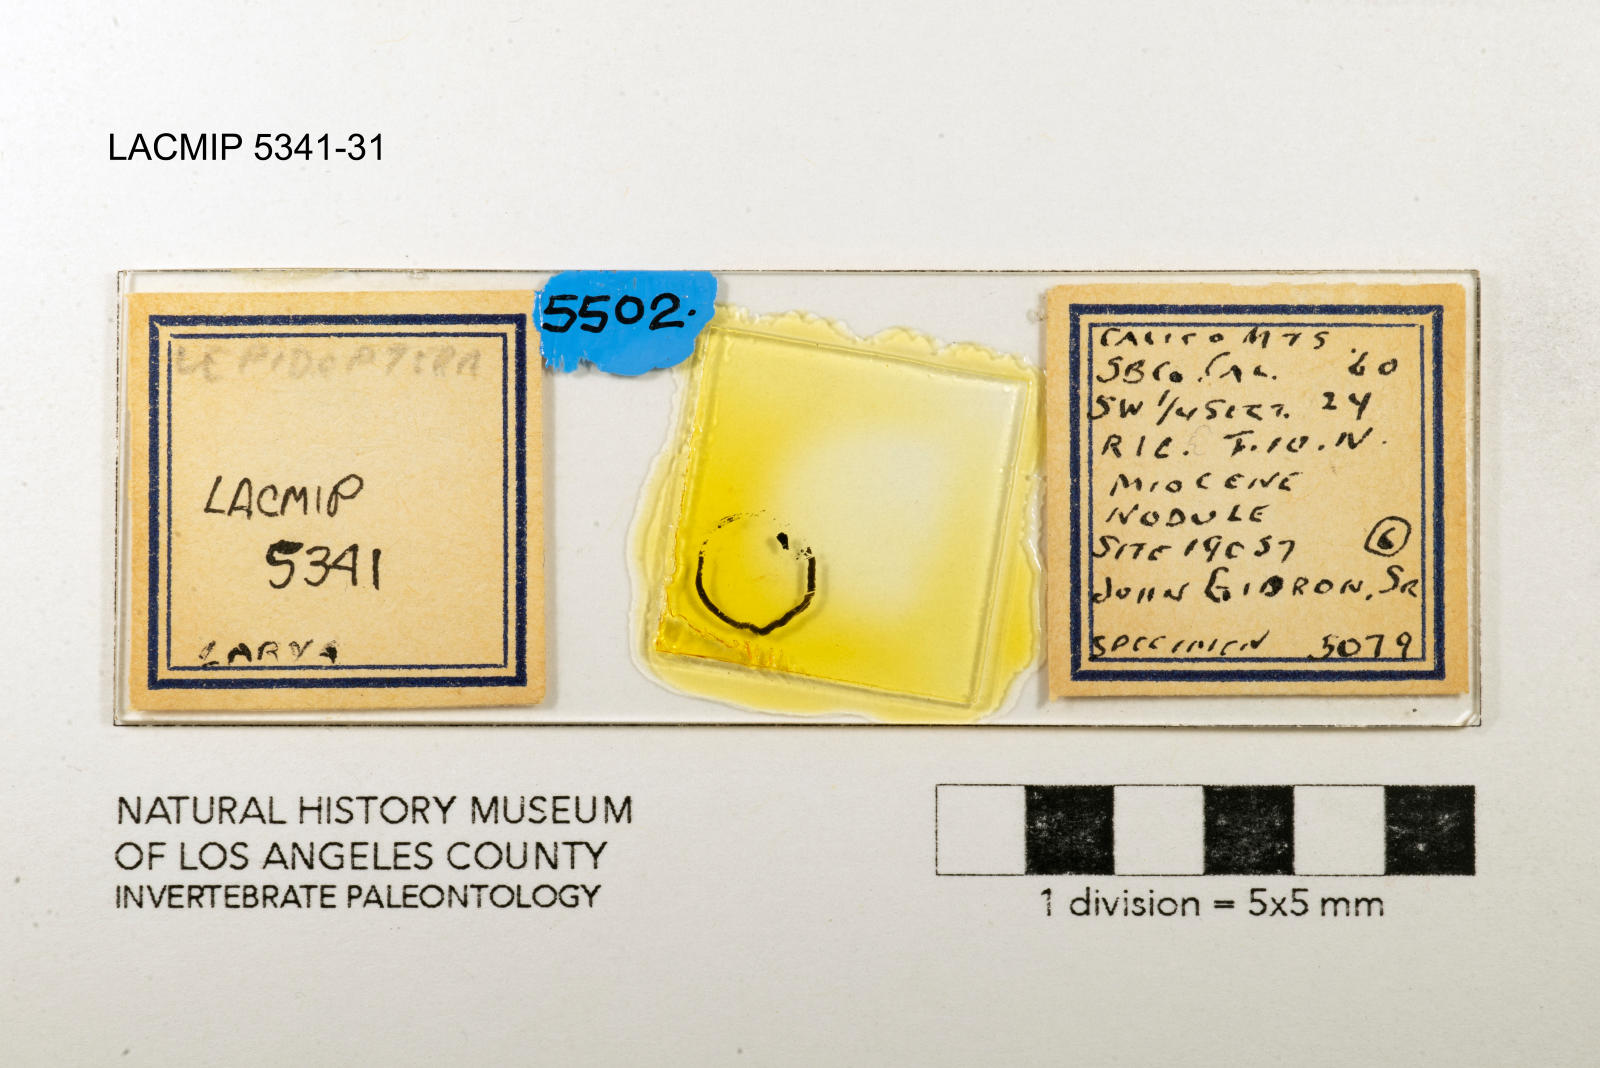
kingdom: Animalia
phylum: Arthropoda
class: Insecta
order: Lepidoptera
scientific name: Lepidoptera
